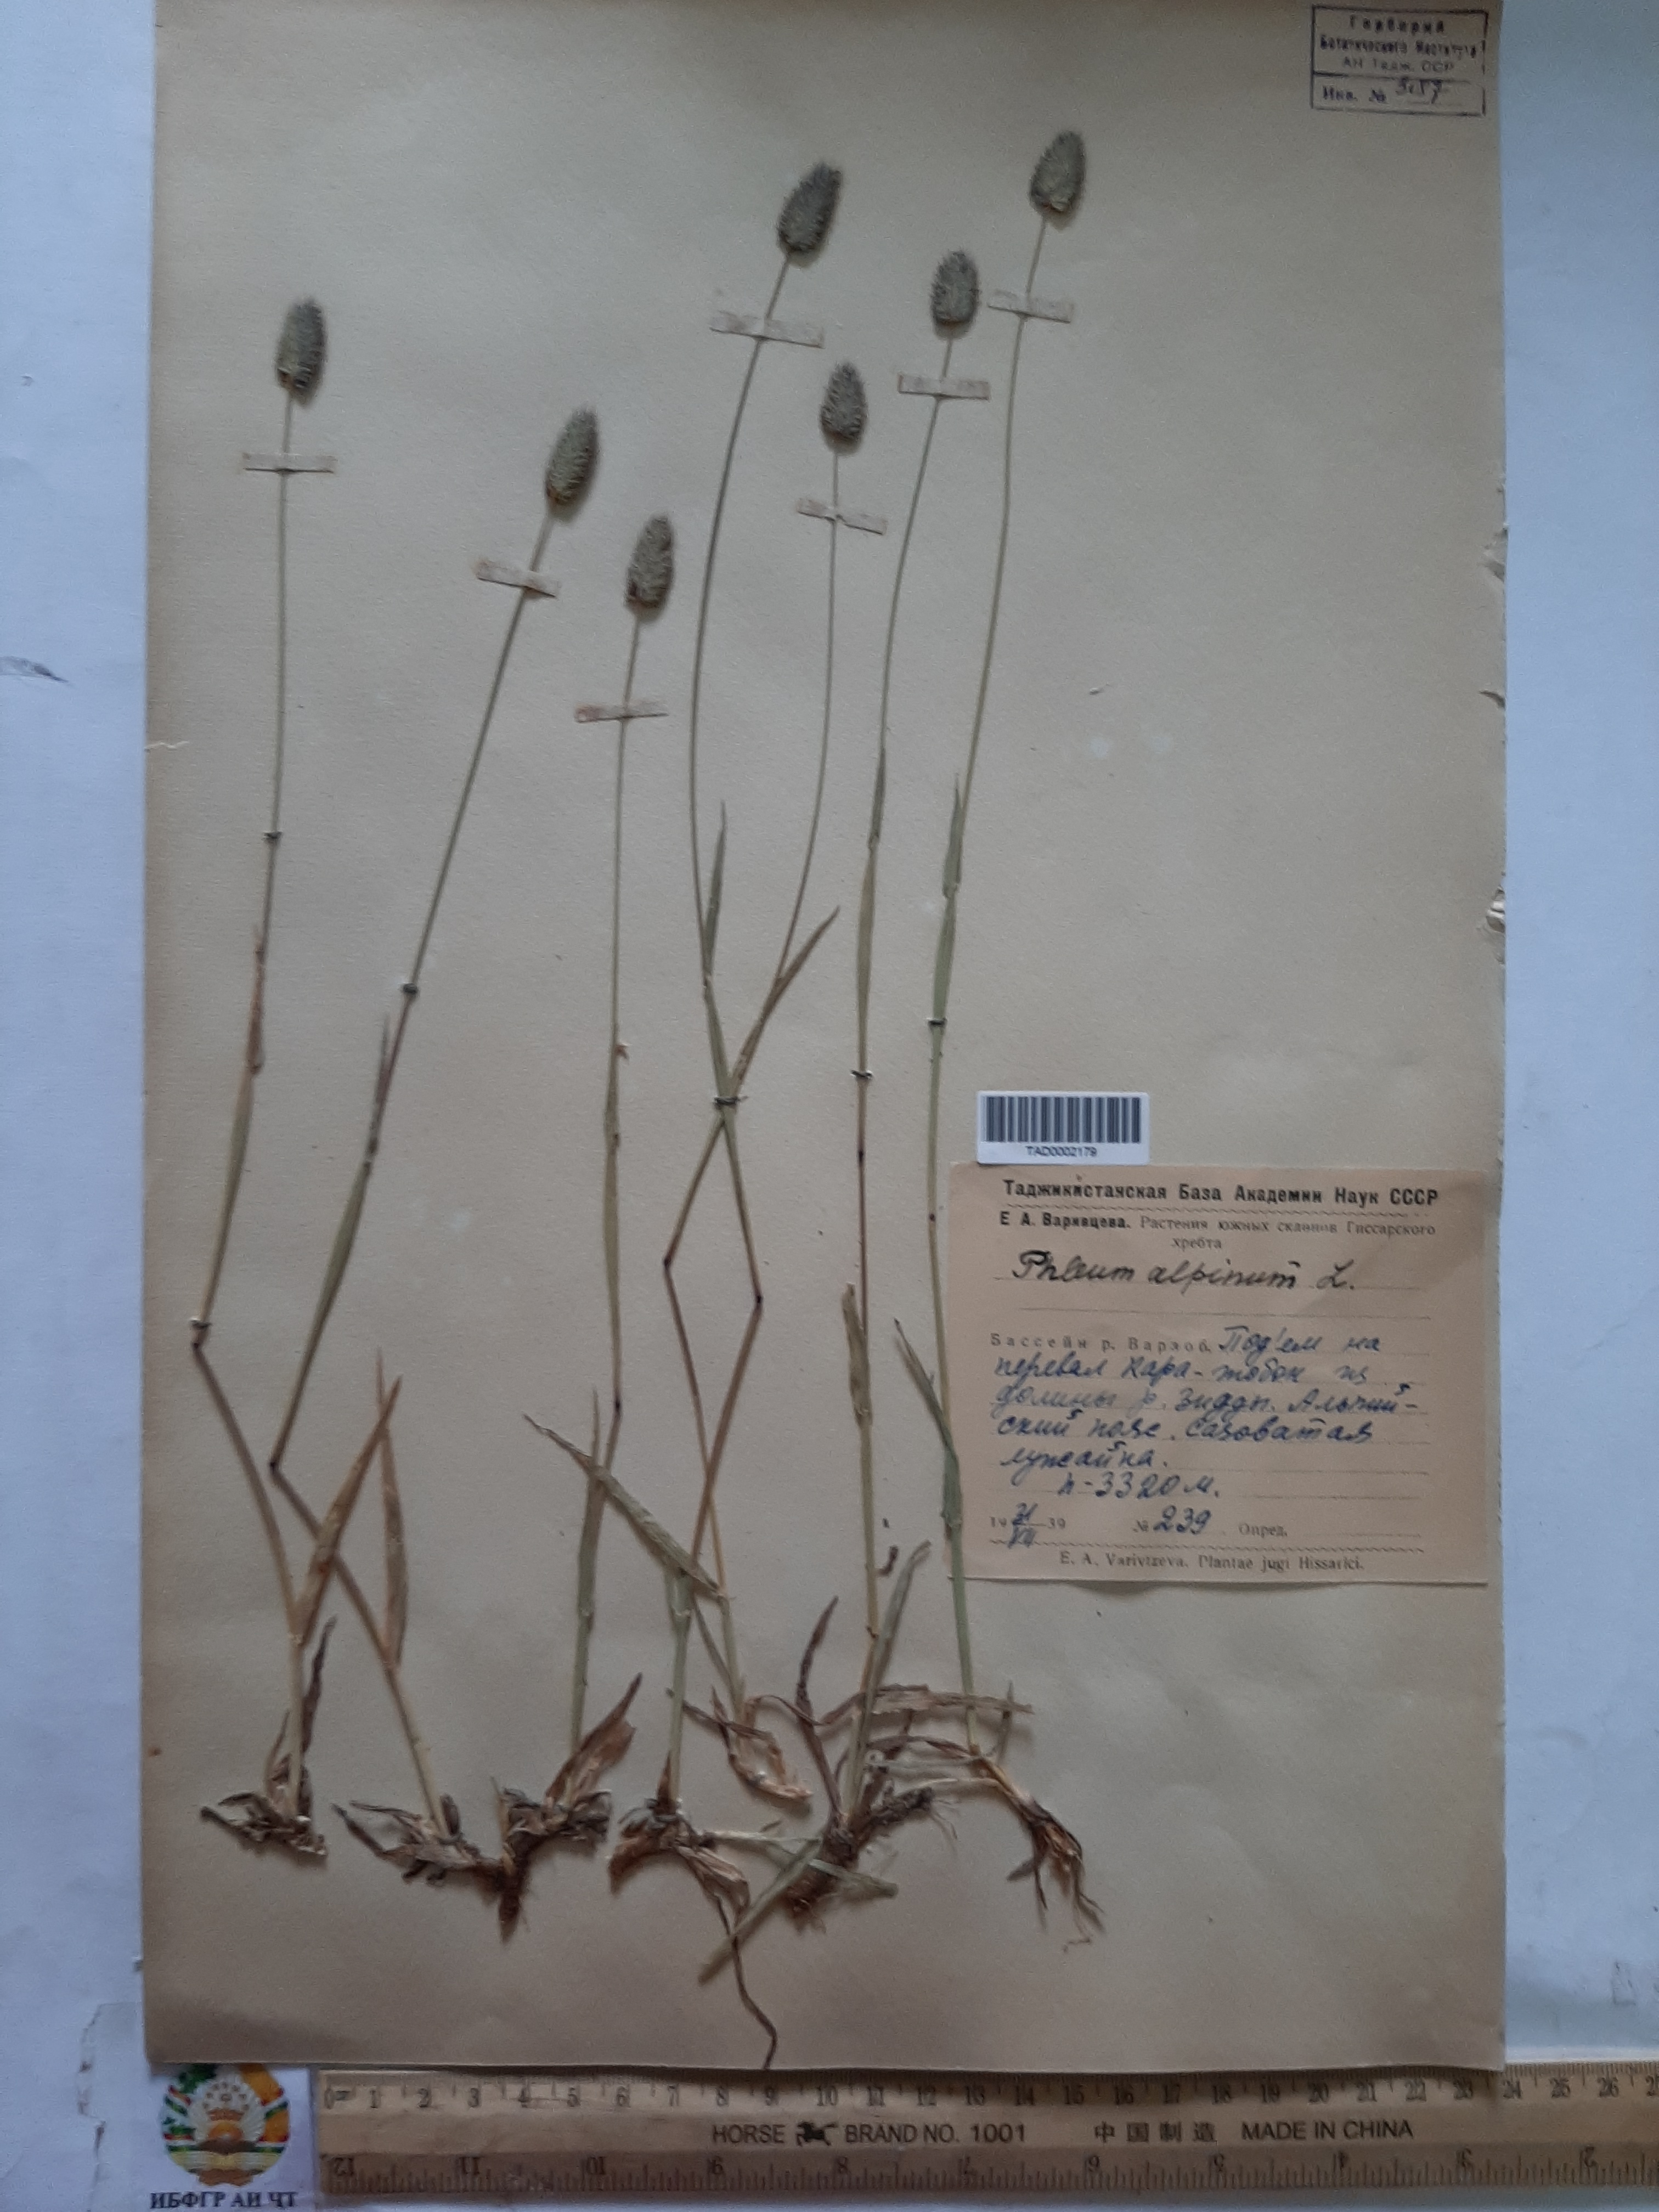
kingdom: Plantae
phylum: Tracheophyta
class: Liliopsida
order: Poales
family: Poaceae
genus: Phleum
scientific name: Phleum alpinum
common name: Alpine cat's-tail
